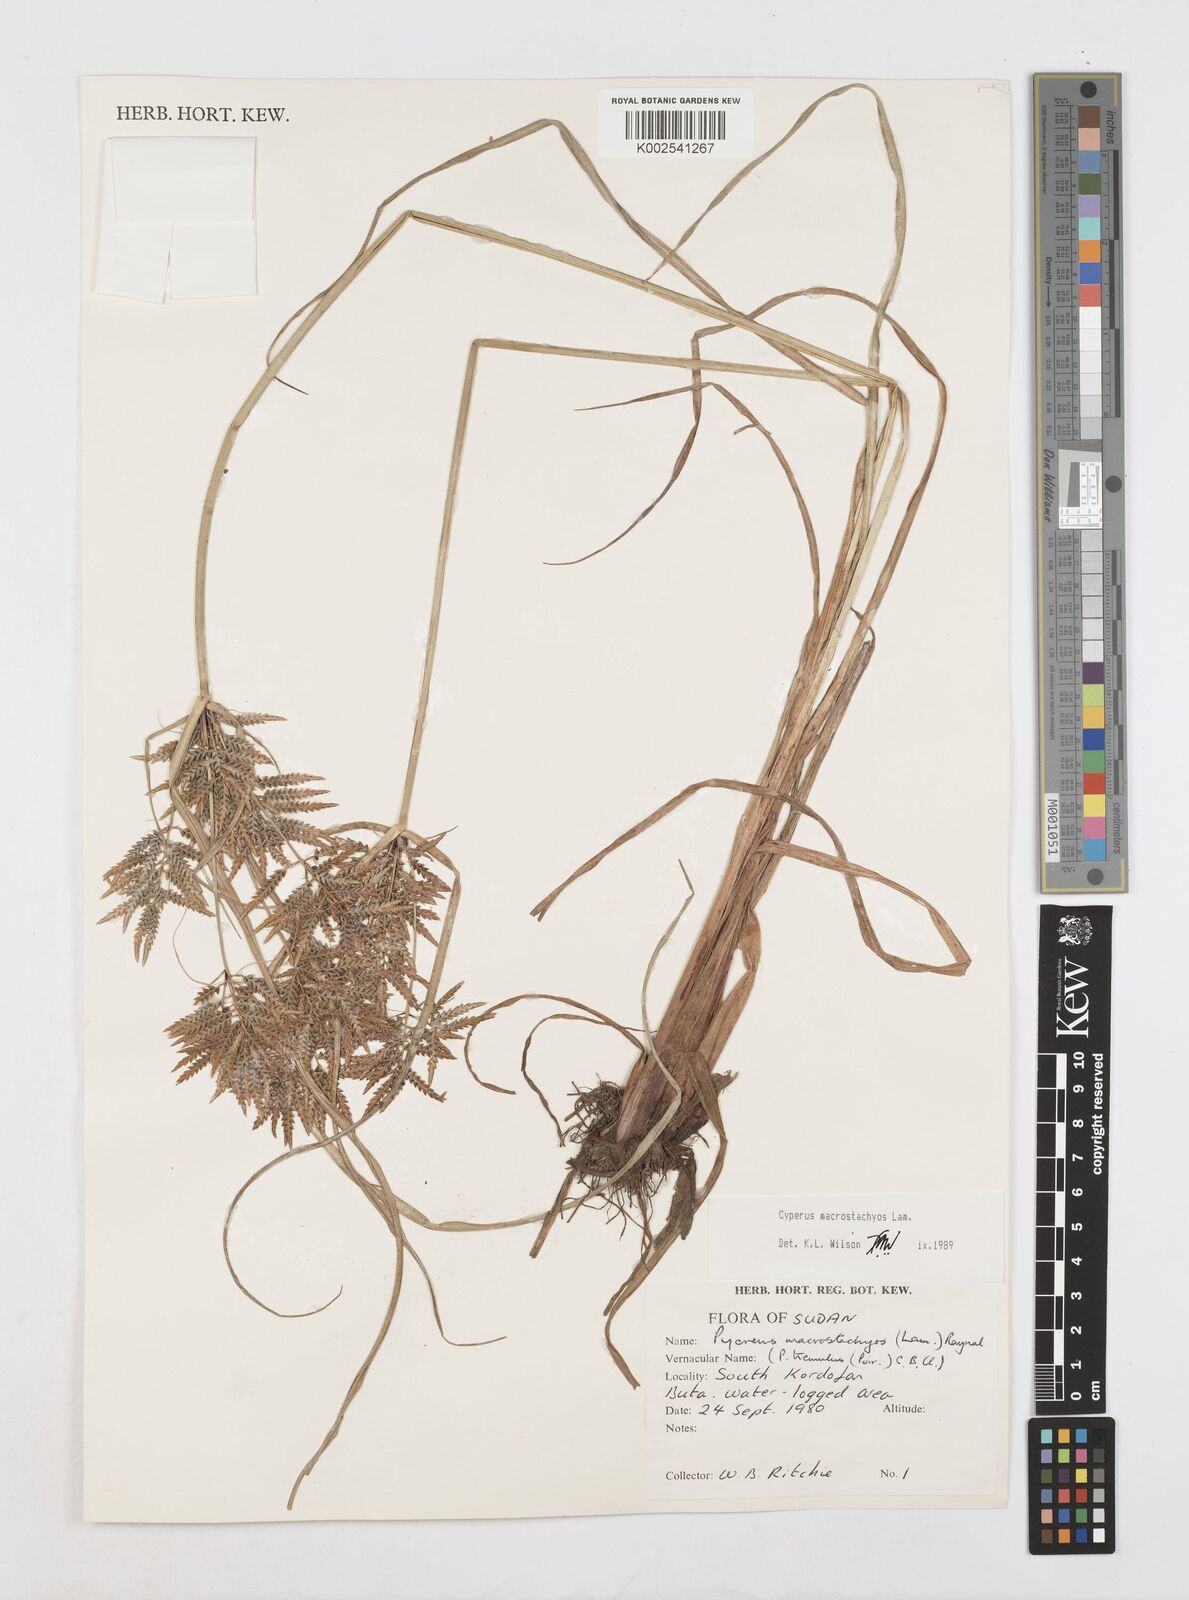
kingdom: Plantae
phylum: Tracheophyta
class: Liliopsida
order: Poales
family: Cyperaceae
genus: Cyperus
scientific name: Cyperus macrostachyos
